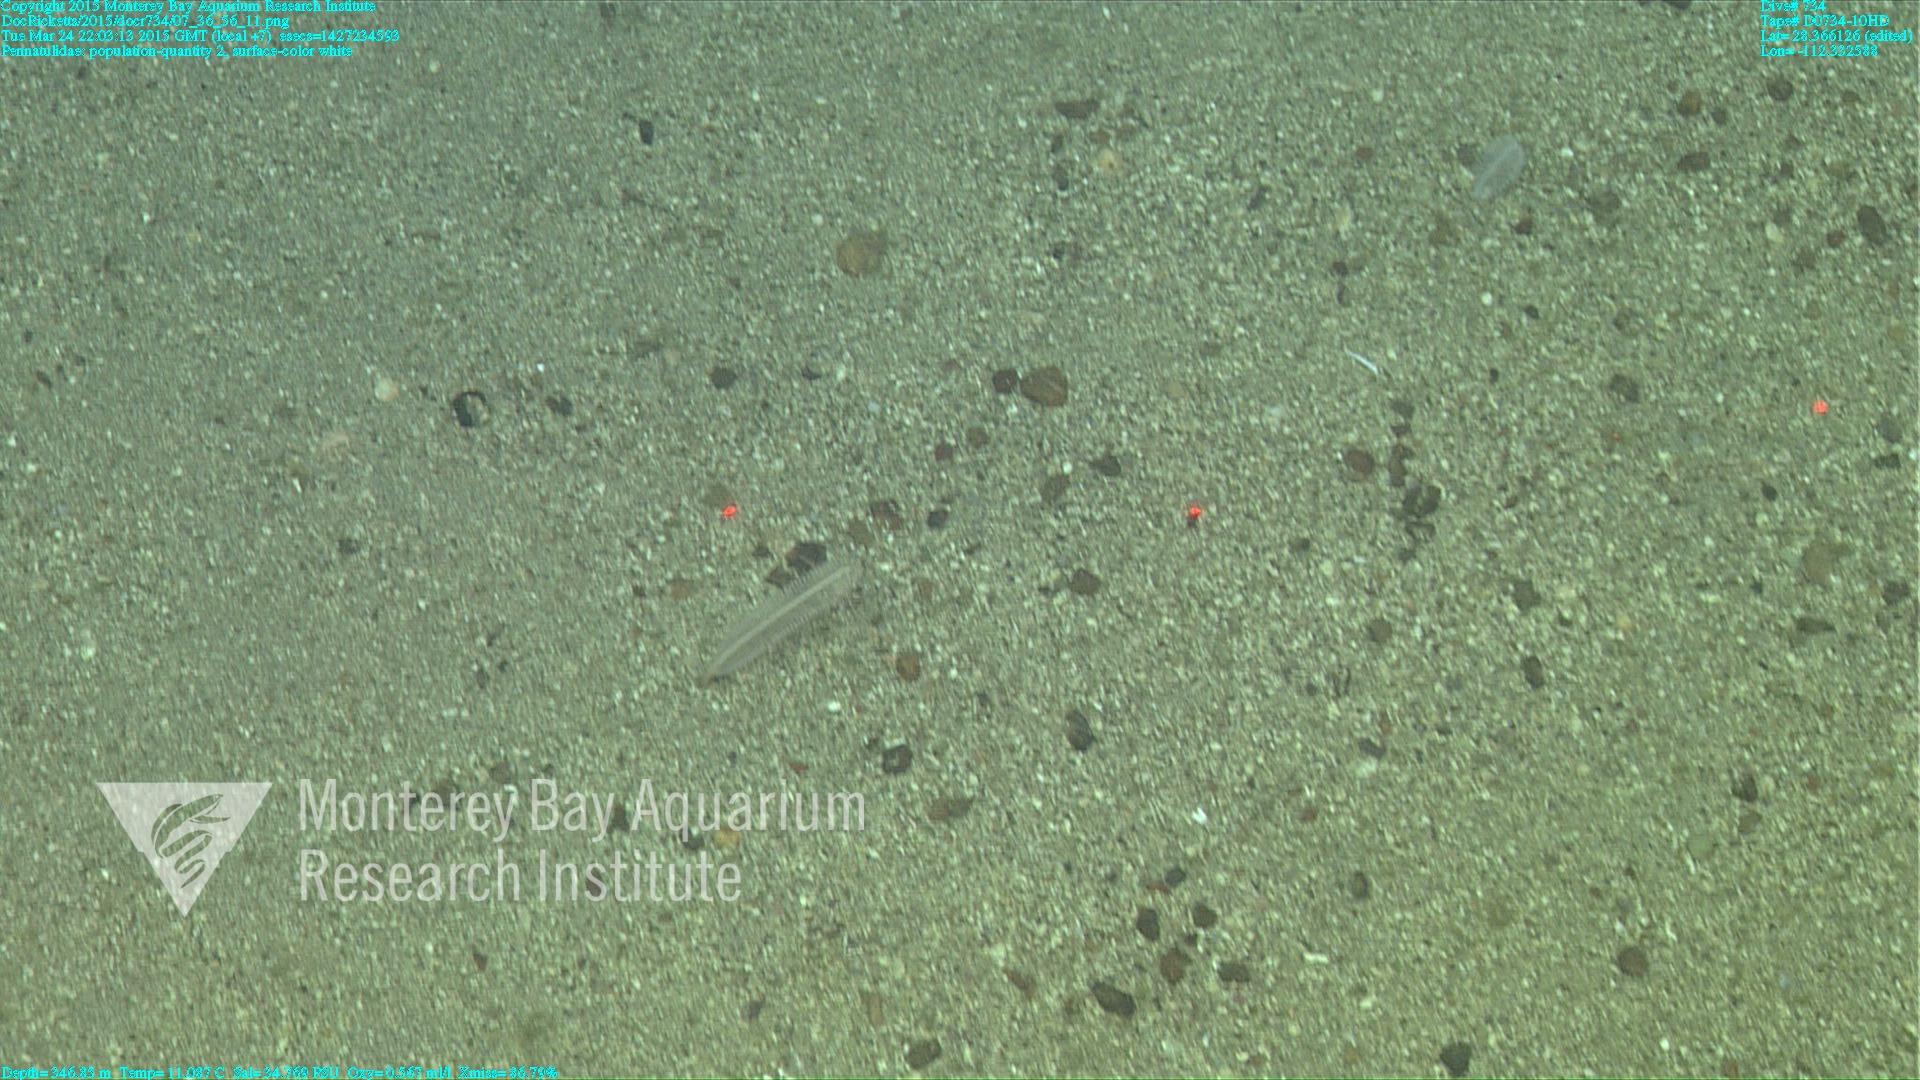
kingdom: Animalia
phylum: Cnidaria
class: Anthozoa
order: Scleralcyonacea
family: Pennatulidae
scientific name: Pennatulidae
